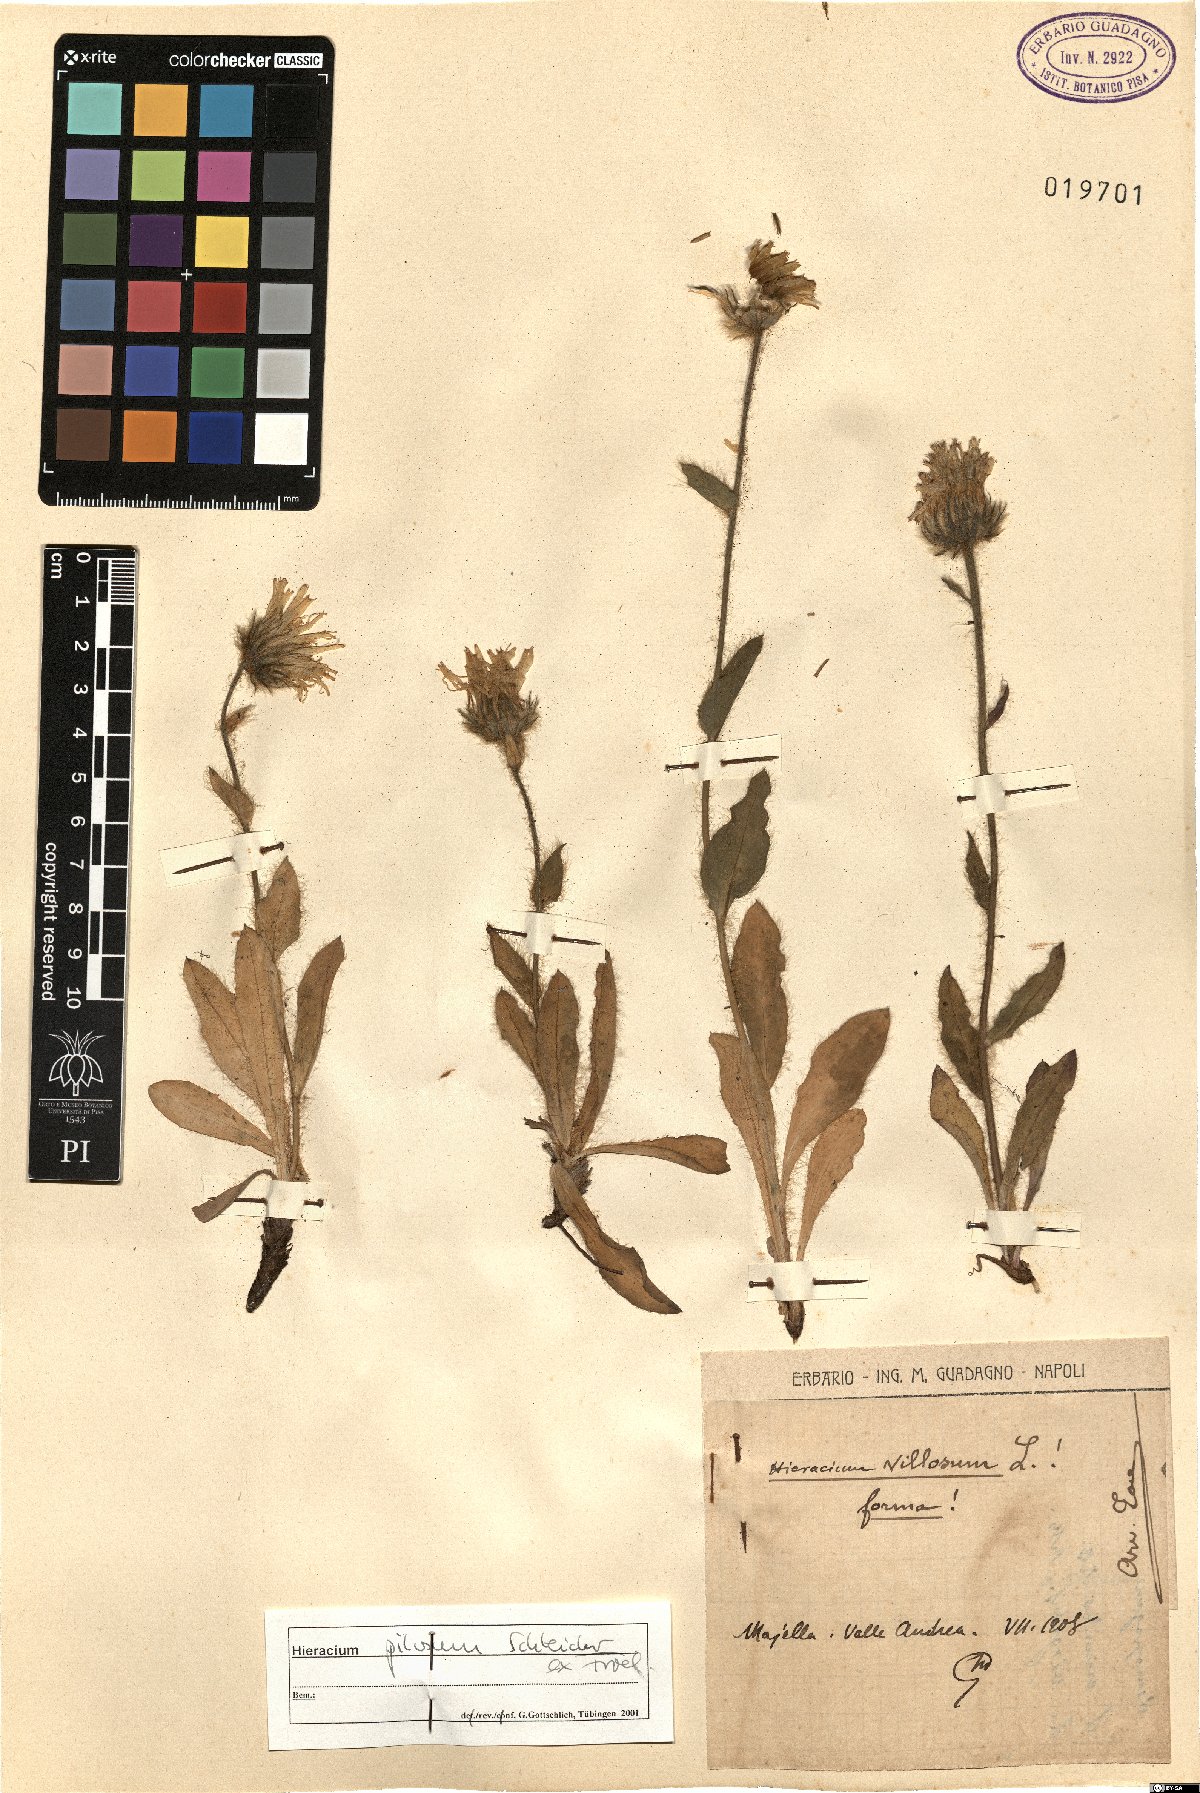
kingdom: Plantae
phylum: Tracheophyta
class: Magnoliopsida
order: Asterales
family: Asteraceae
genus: Hieracium
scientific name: Hieracium pilosum
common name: Fimbriate-pitted hawkweed
